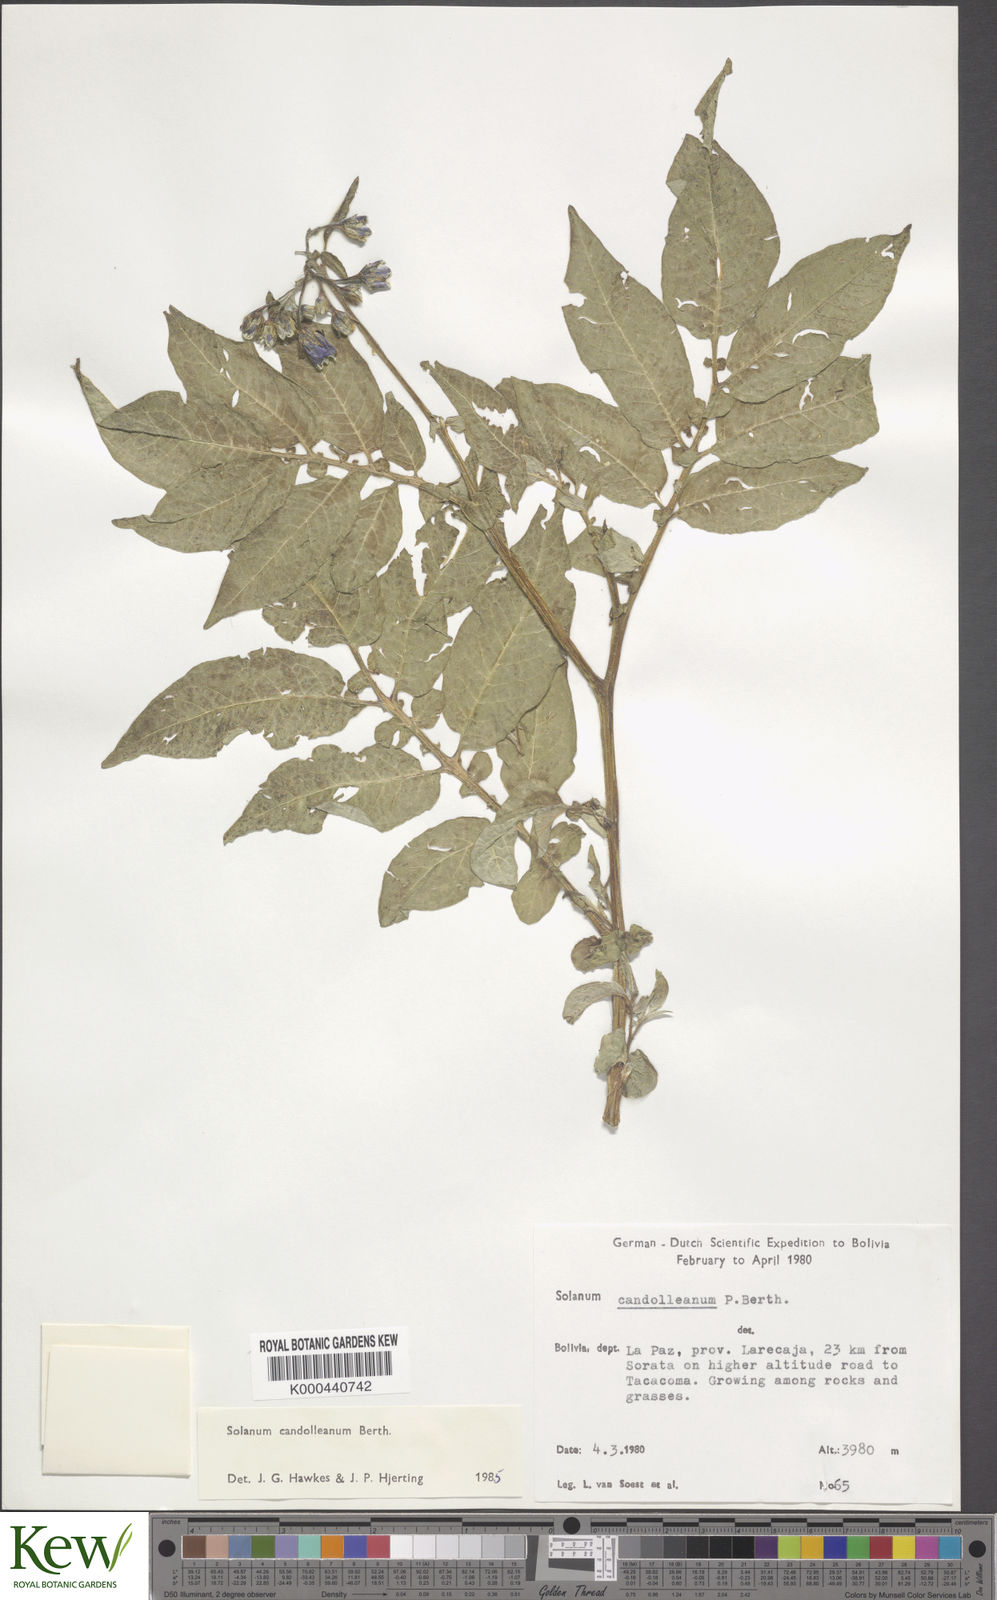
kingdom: Plantae
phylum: Tracheophyta
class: Magnoliopsida
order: Solanales
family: Solanaceae
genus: Solanum
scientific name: Solanum brevicaule
